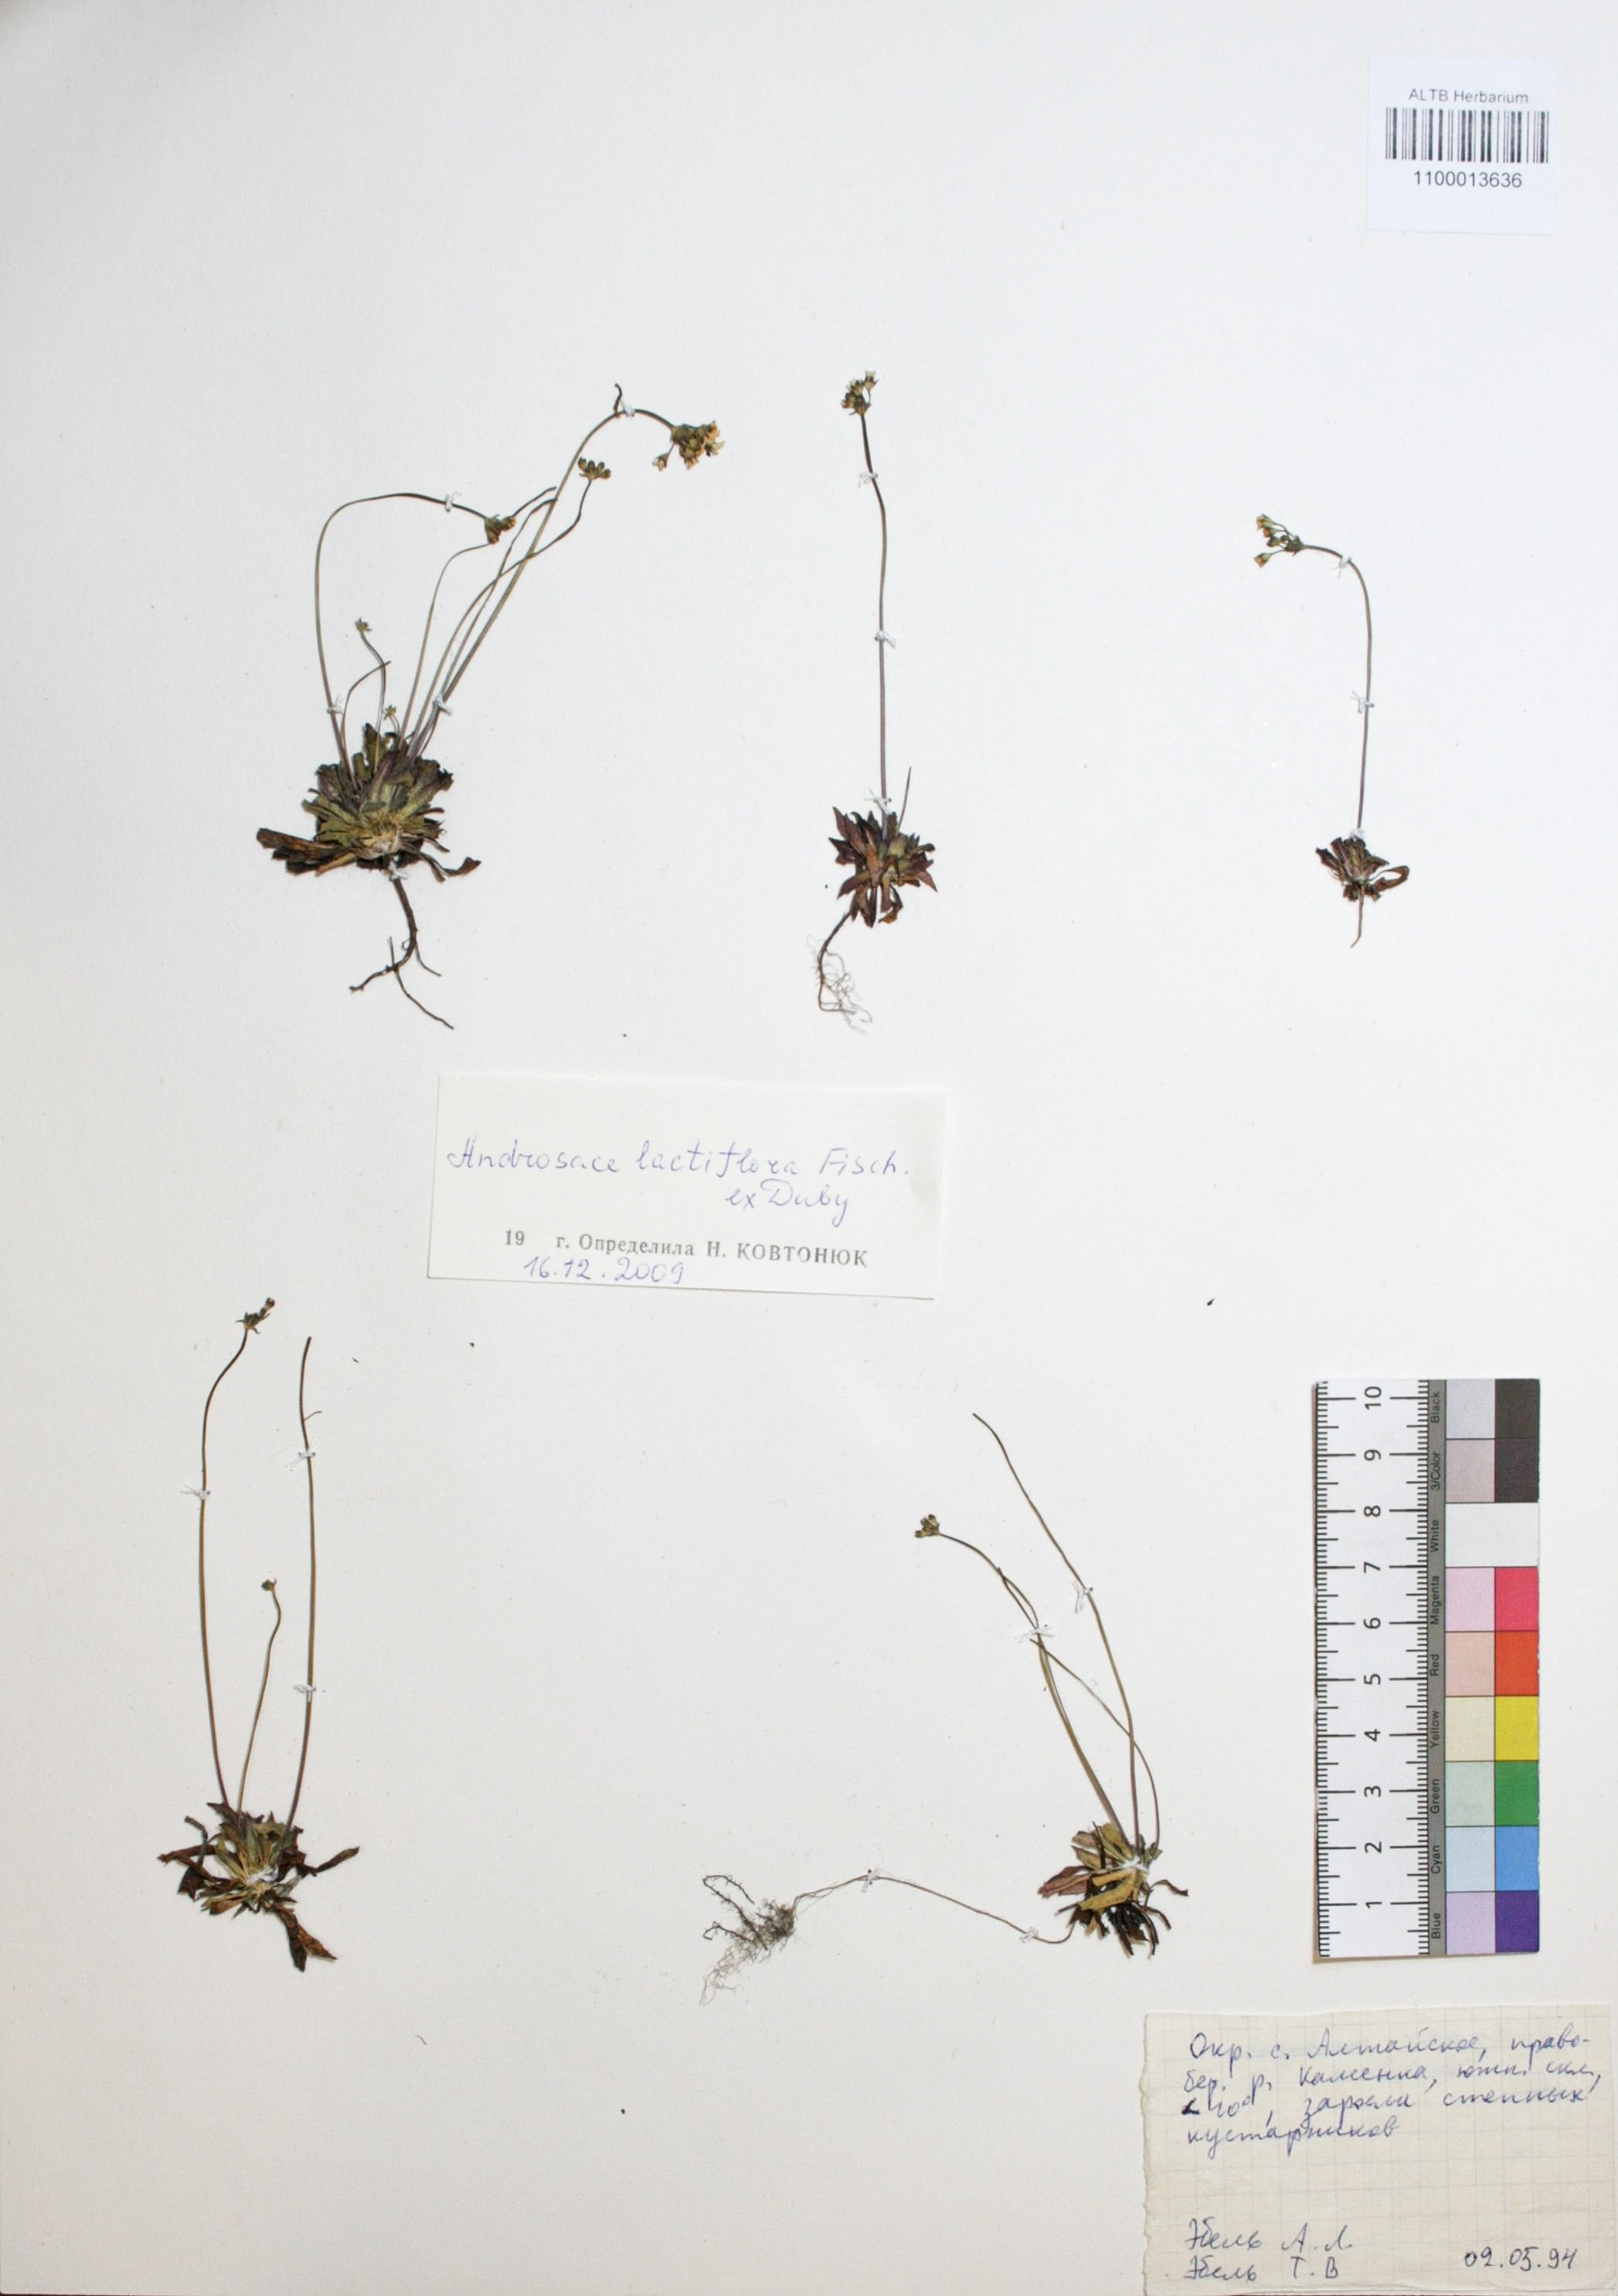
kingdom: Plantae
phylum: Tracheophyta
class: Magnoliopsida
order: Ericales
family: Primulaceae
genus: Androsace
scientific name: Androsace lactiflora
